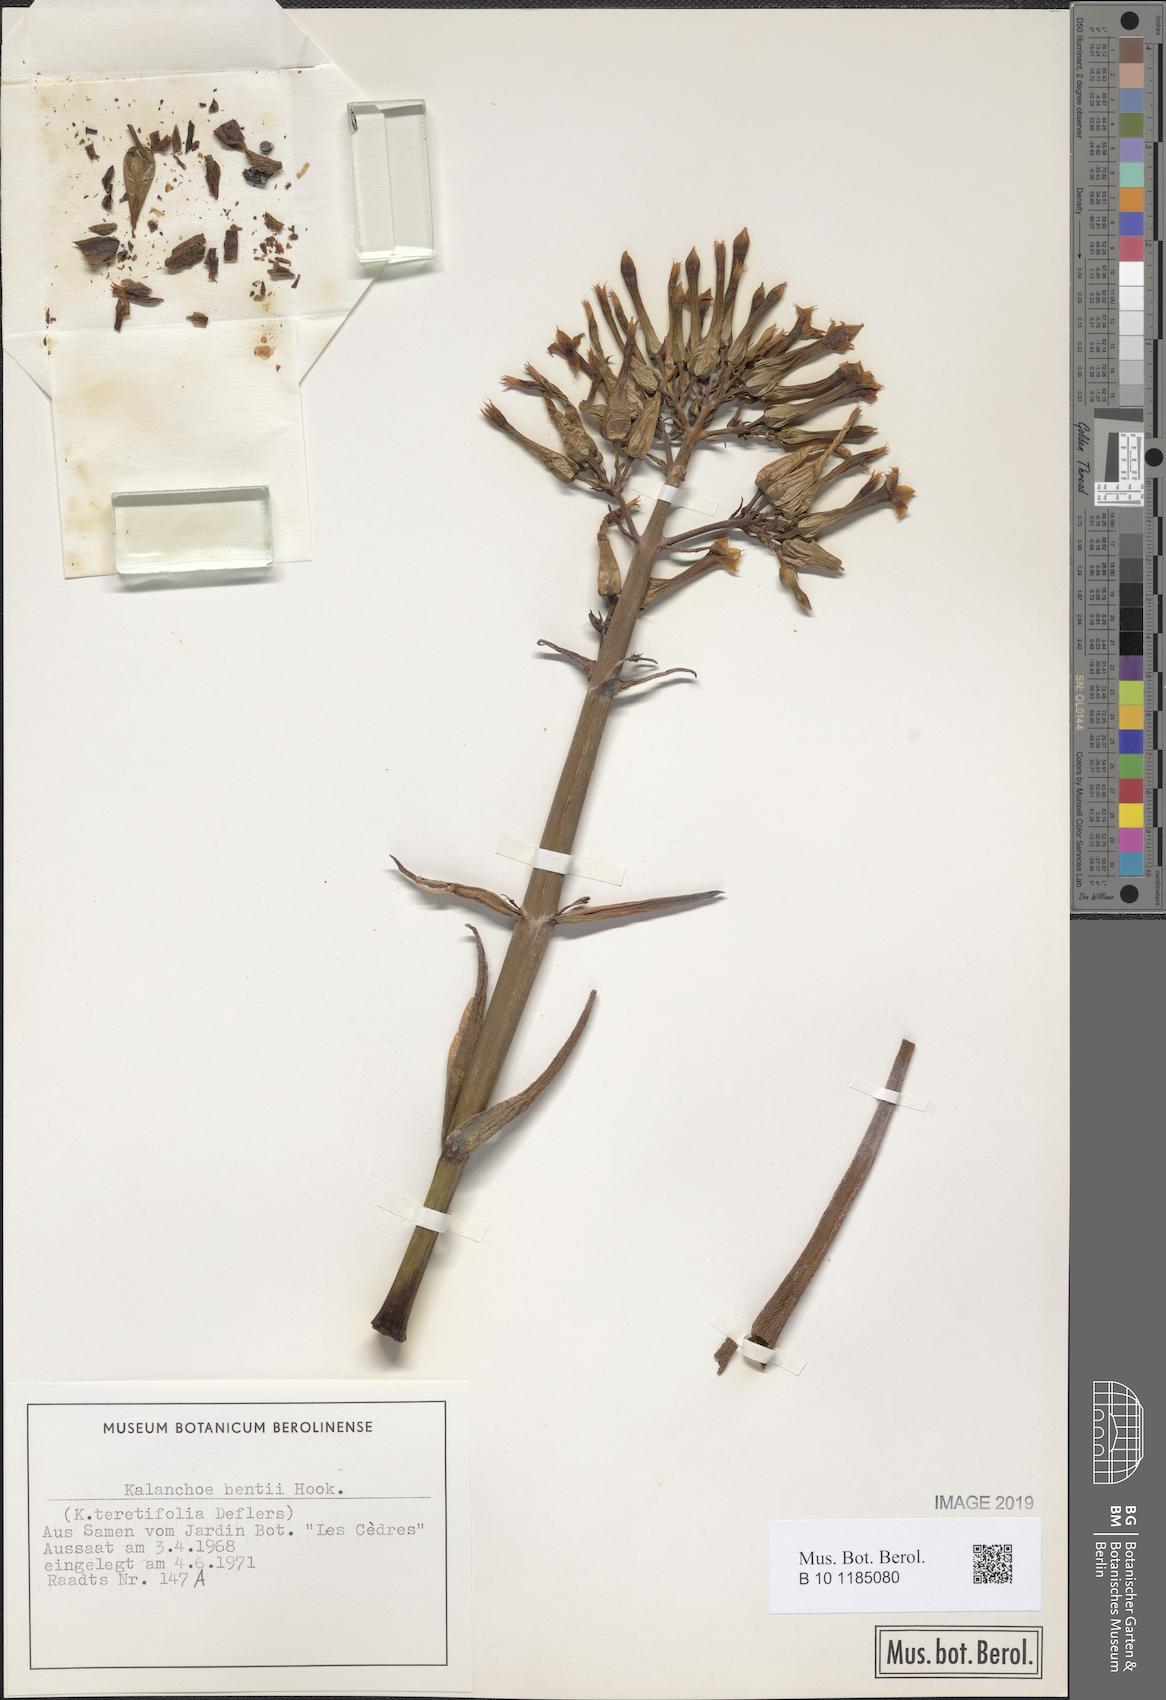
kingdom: Plantae
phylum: Tracheophyta
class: Magnoliopsida
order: Saxifragales
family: Crassulaceae
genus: Kalanchoe
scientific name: Kalanchoe bentii
